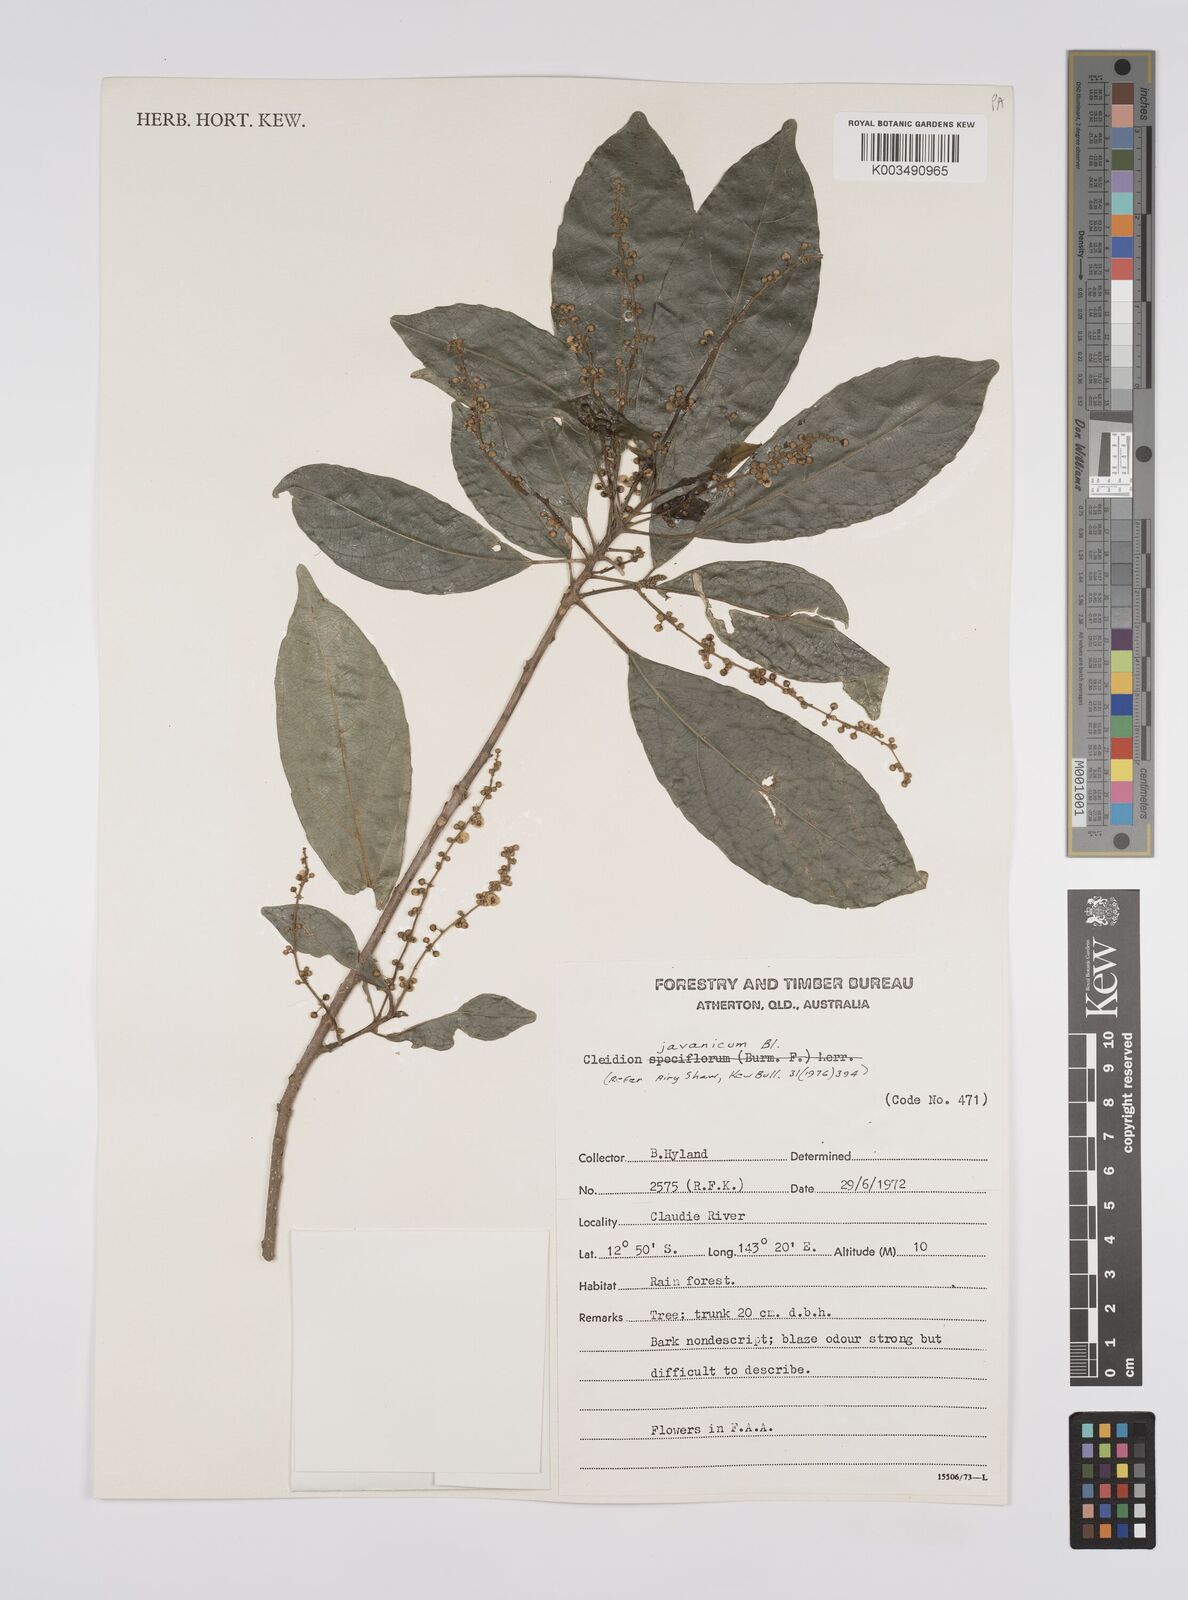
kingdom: Plantae
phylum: Tracheophyta
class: Magnoliopsida
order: Malpighiales
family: Euphorbiaceae
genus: Cleidion
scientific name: Cleidion javanicum
